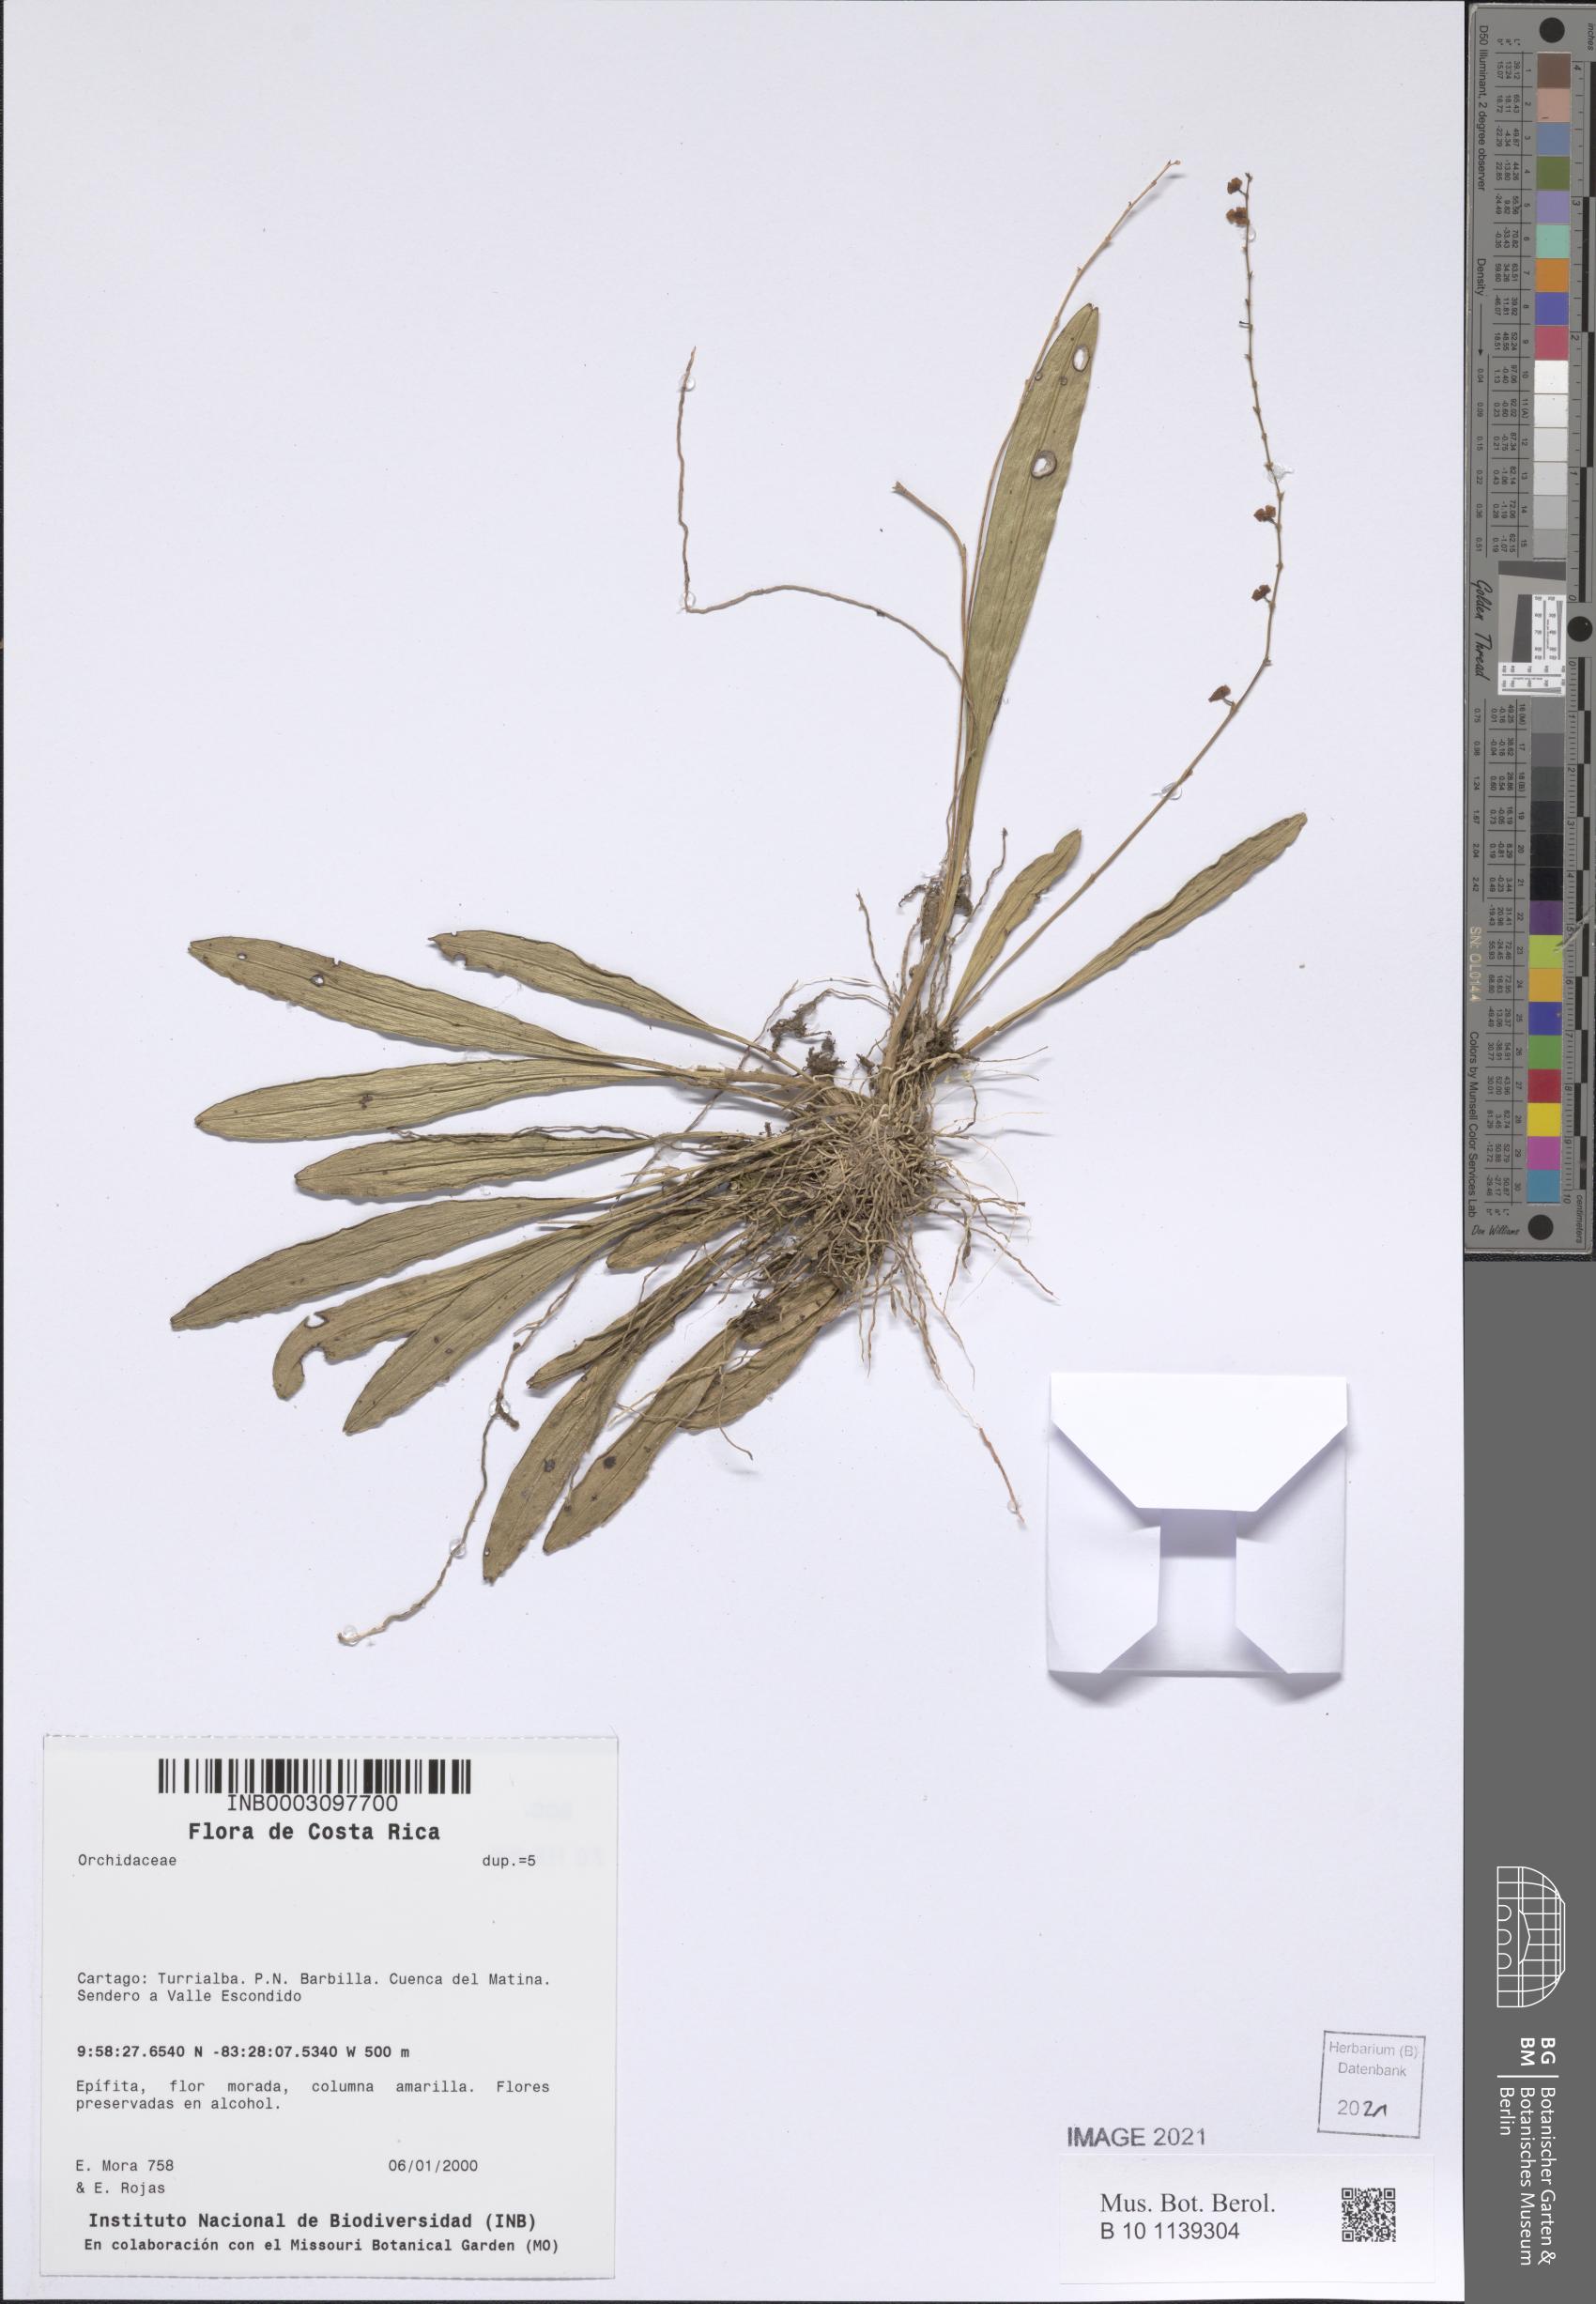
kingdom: Plantae
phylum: Tracheophyta
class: Liliopsida
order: Asparagales
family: Orchidaceae
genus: Stelis
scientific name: Stelis
